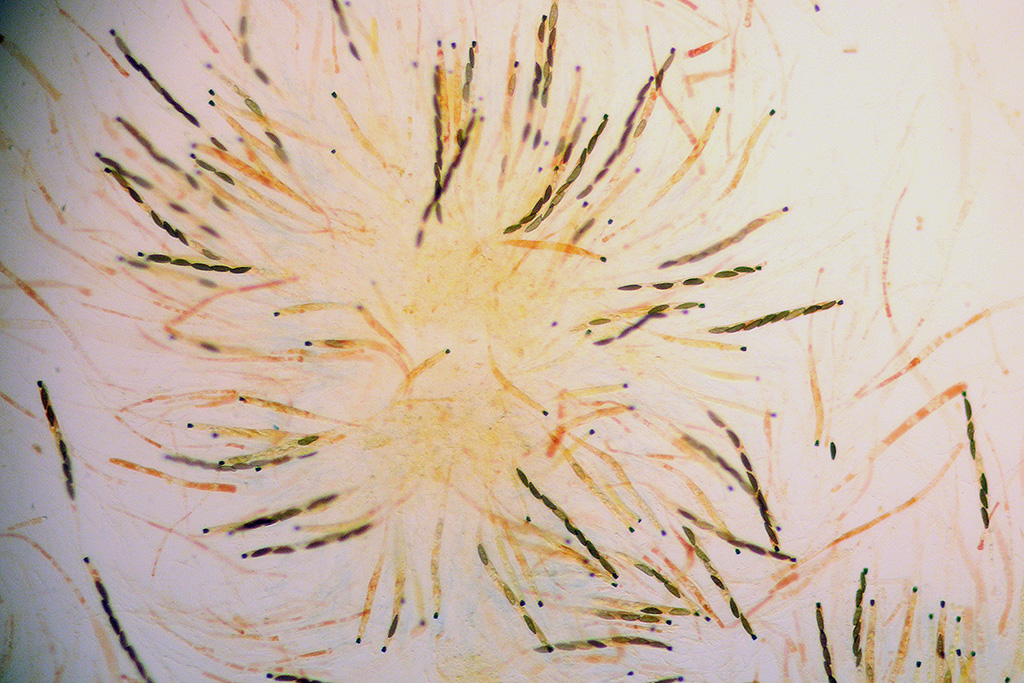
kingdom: Fungi
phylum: Ascomycota
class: Sordariomycetes
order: Xylariales
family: Xylariaceae
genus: Rosellinia
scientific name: Rosellinia
